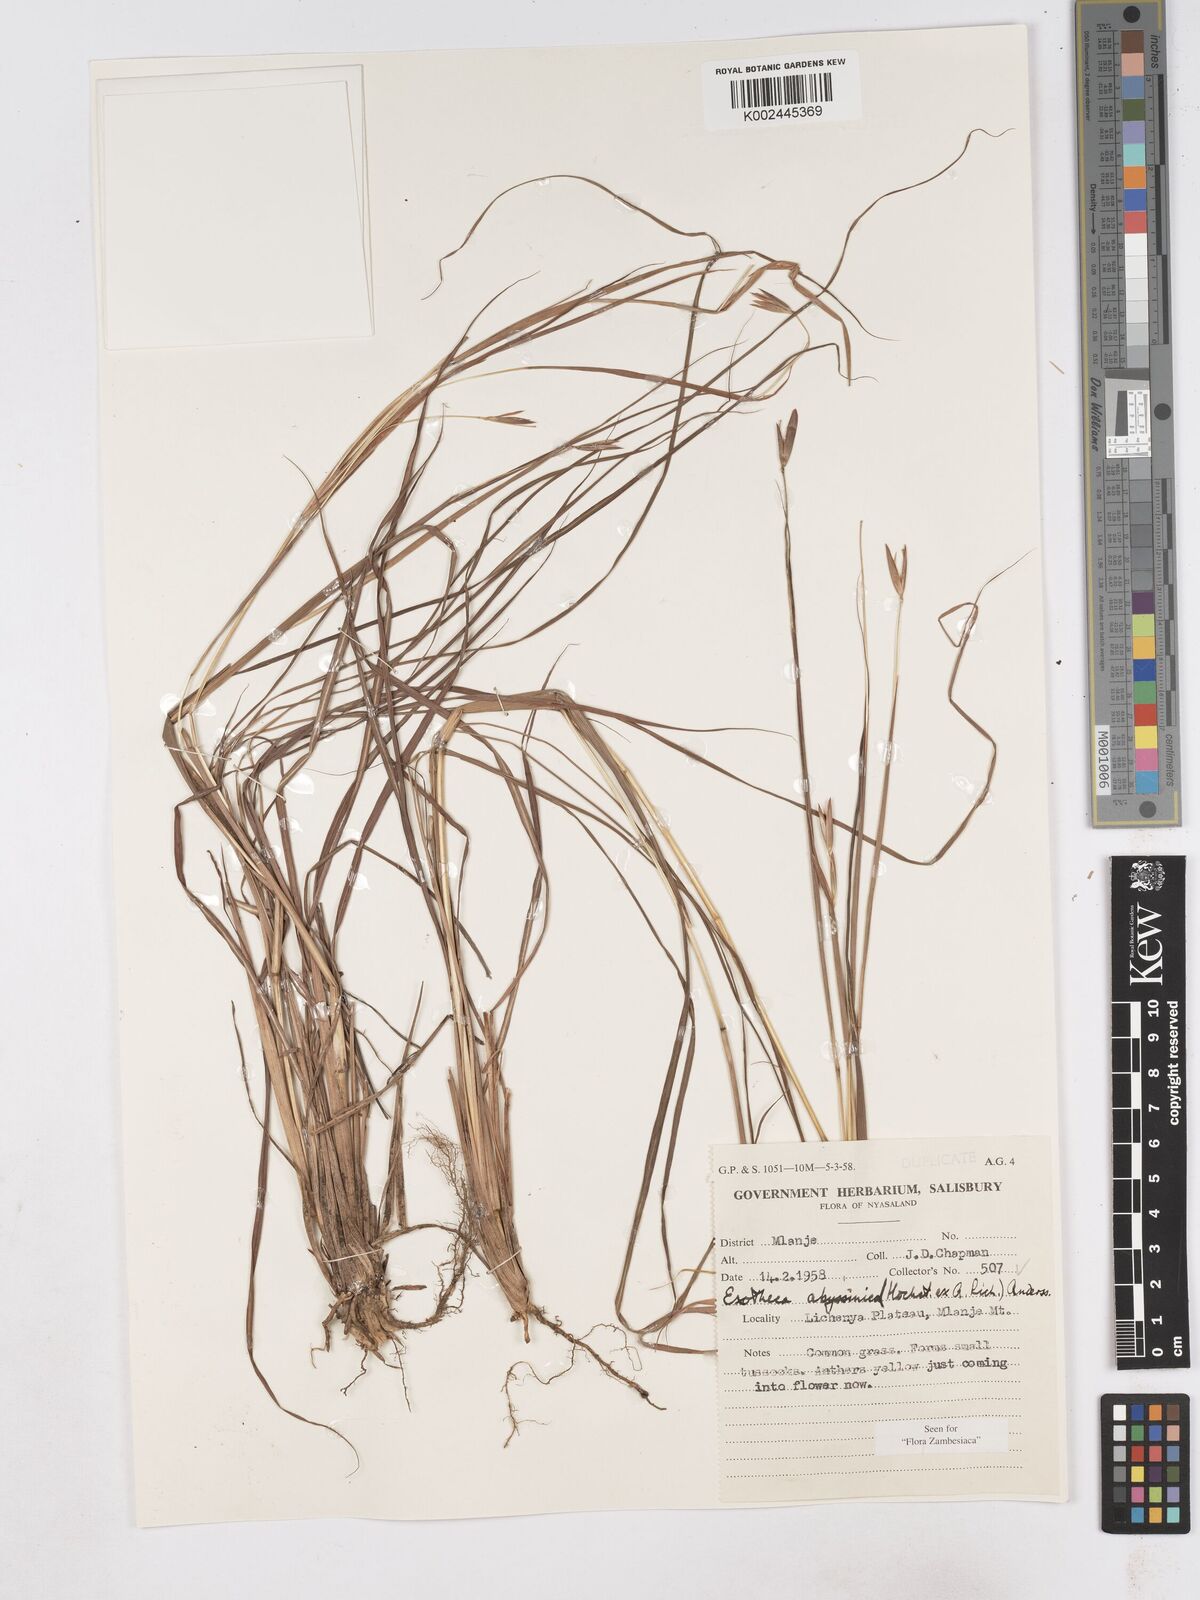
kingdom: Plantae
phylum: Tracheophyta
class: Liliopsida
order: Poales
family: Poaceae
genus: Exotheca
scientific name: Exotheca abyssinica
